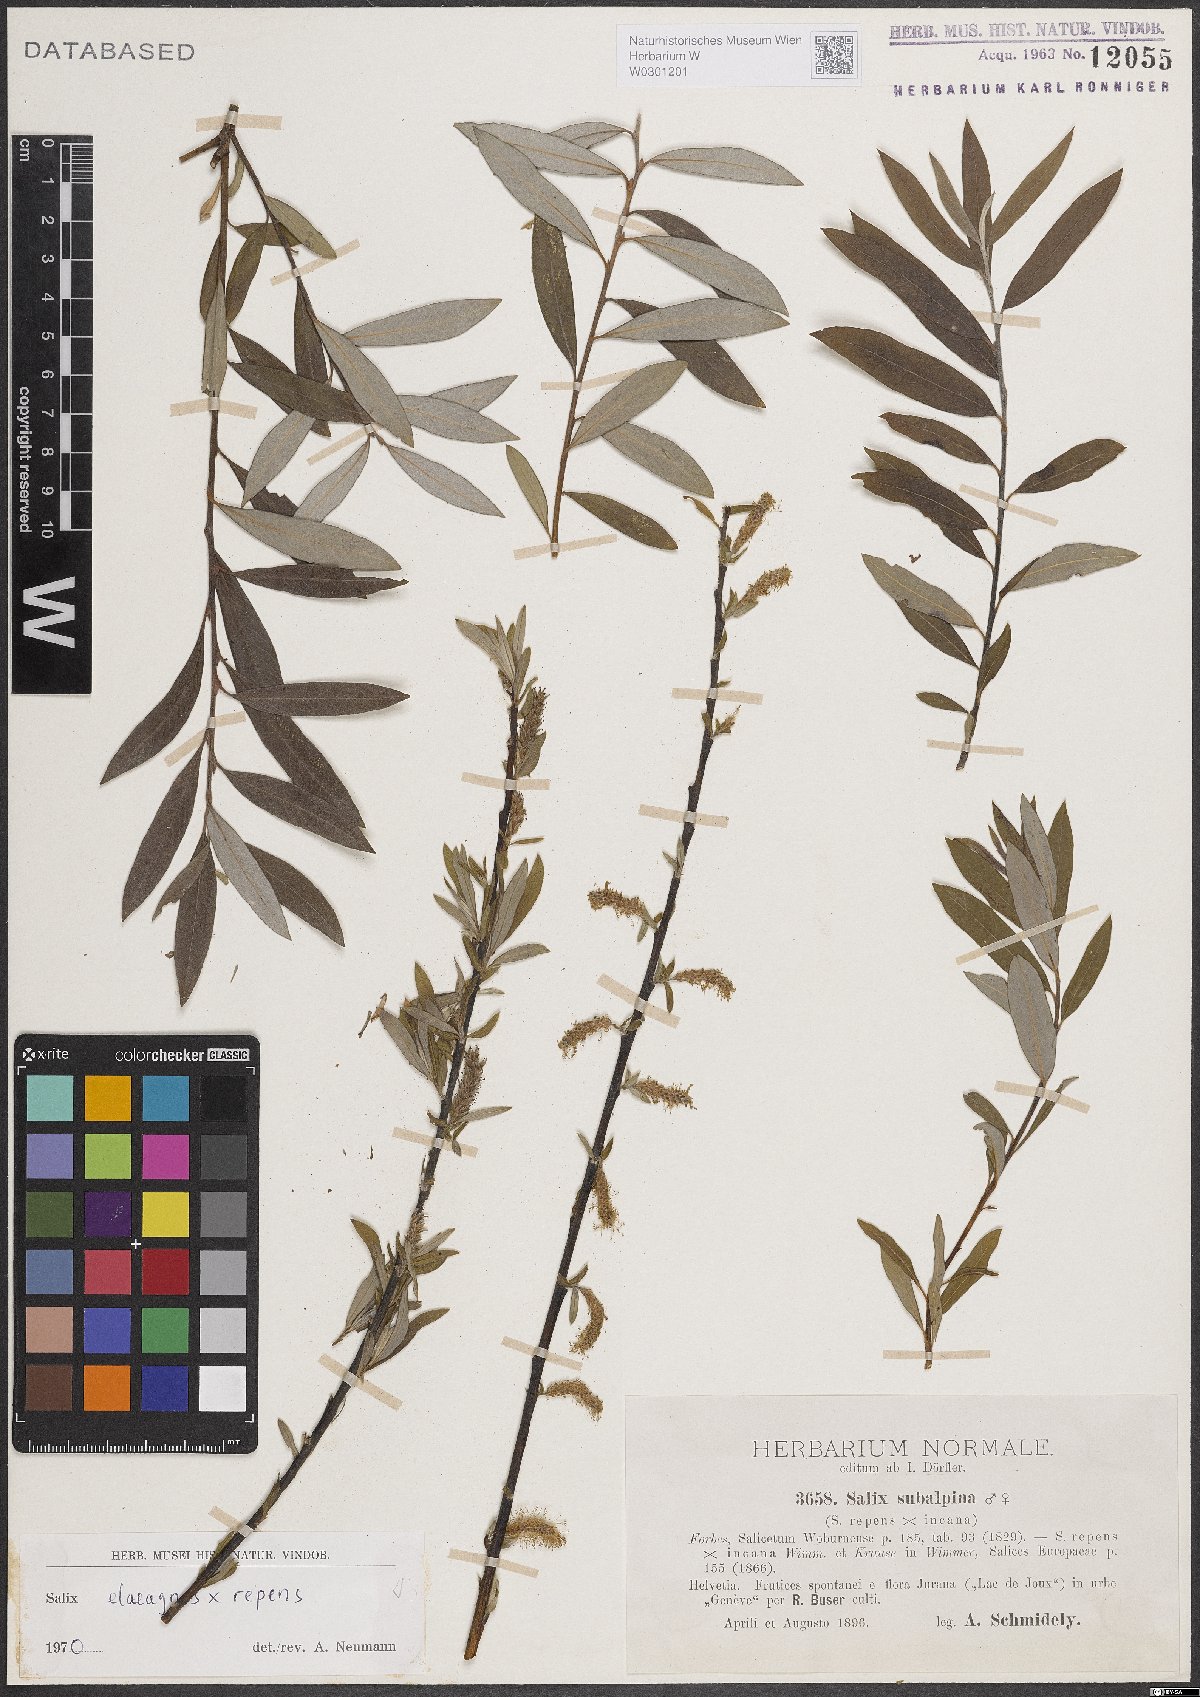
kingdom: Plantae
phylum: Tracheophyta
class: Magnoliopsida
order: Malpighiales
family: Salicaceae
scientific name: Salicaceae
